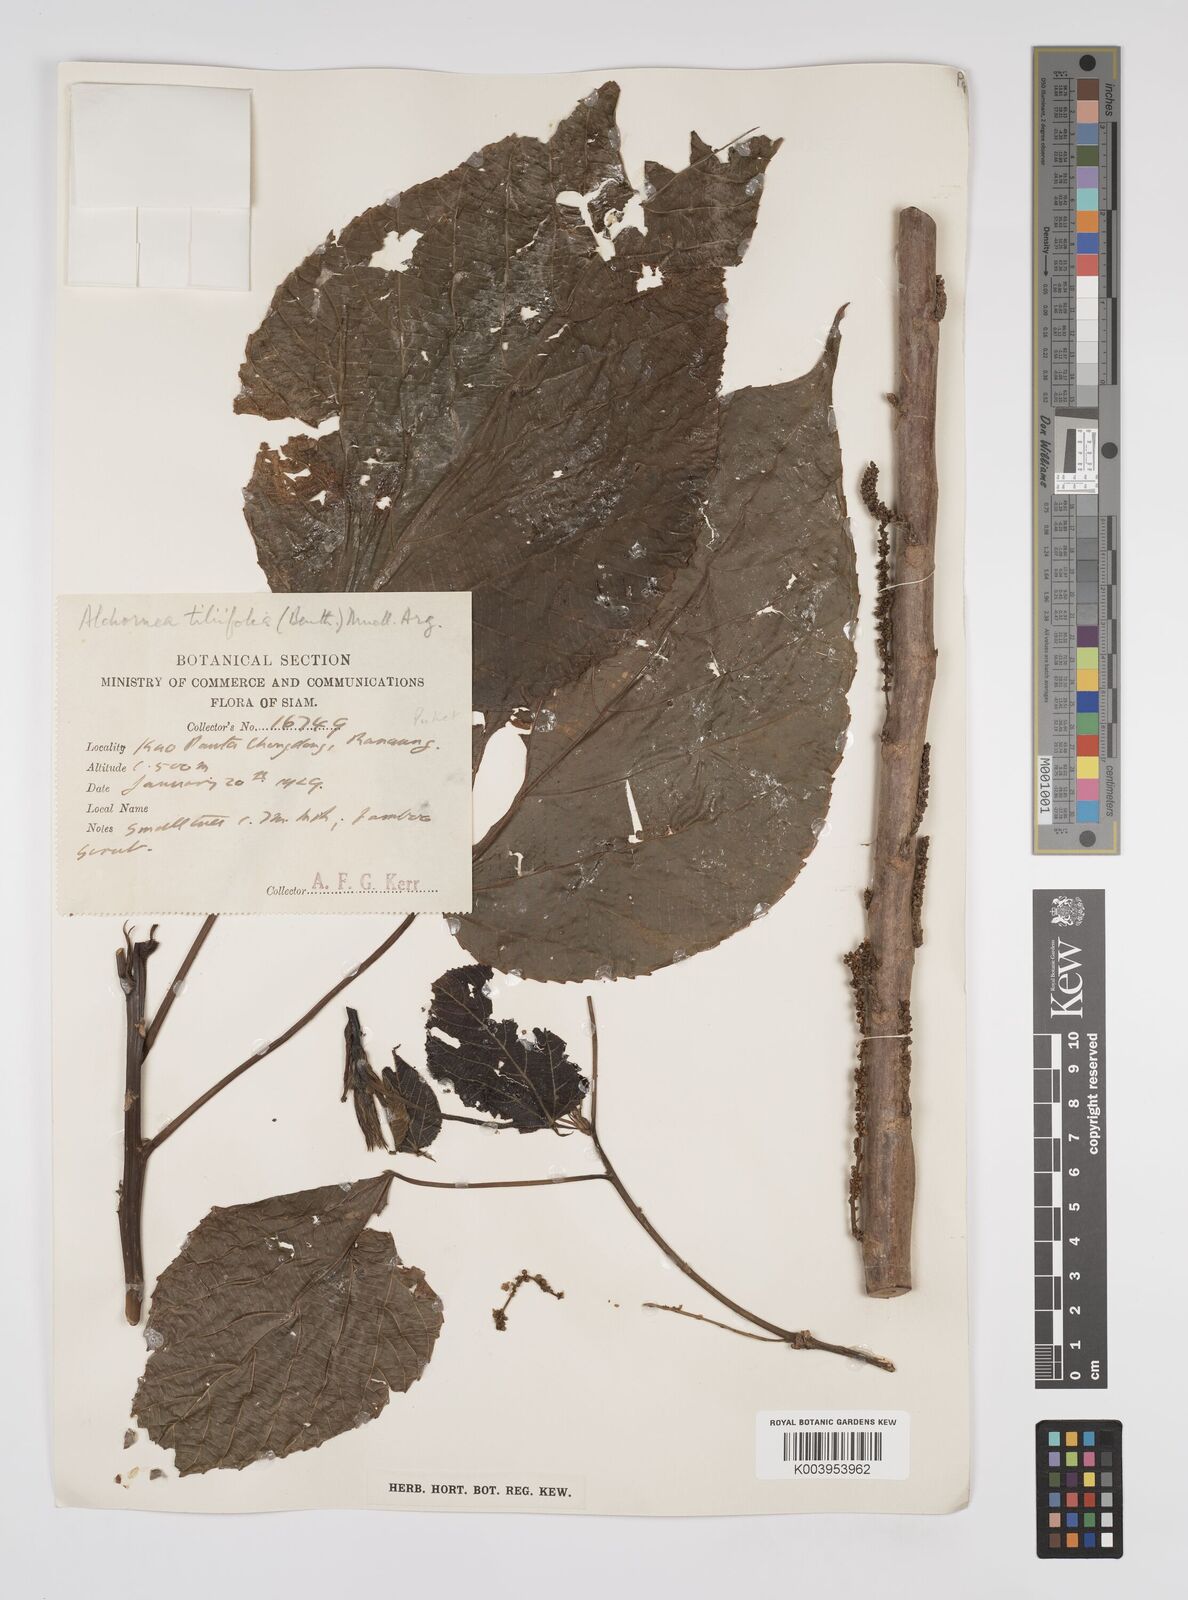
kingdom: Plantae
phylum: Tracheophyta
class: Magnoliopsida
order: Malpighiales
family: Euphorbiaceae
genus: Alchornea
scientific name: Alchornea tiliifolia
